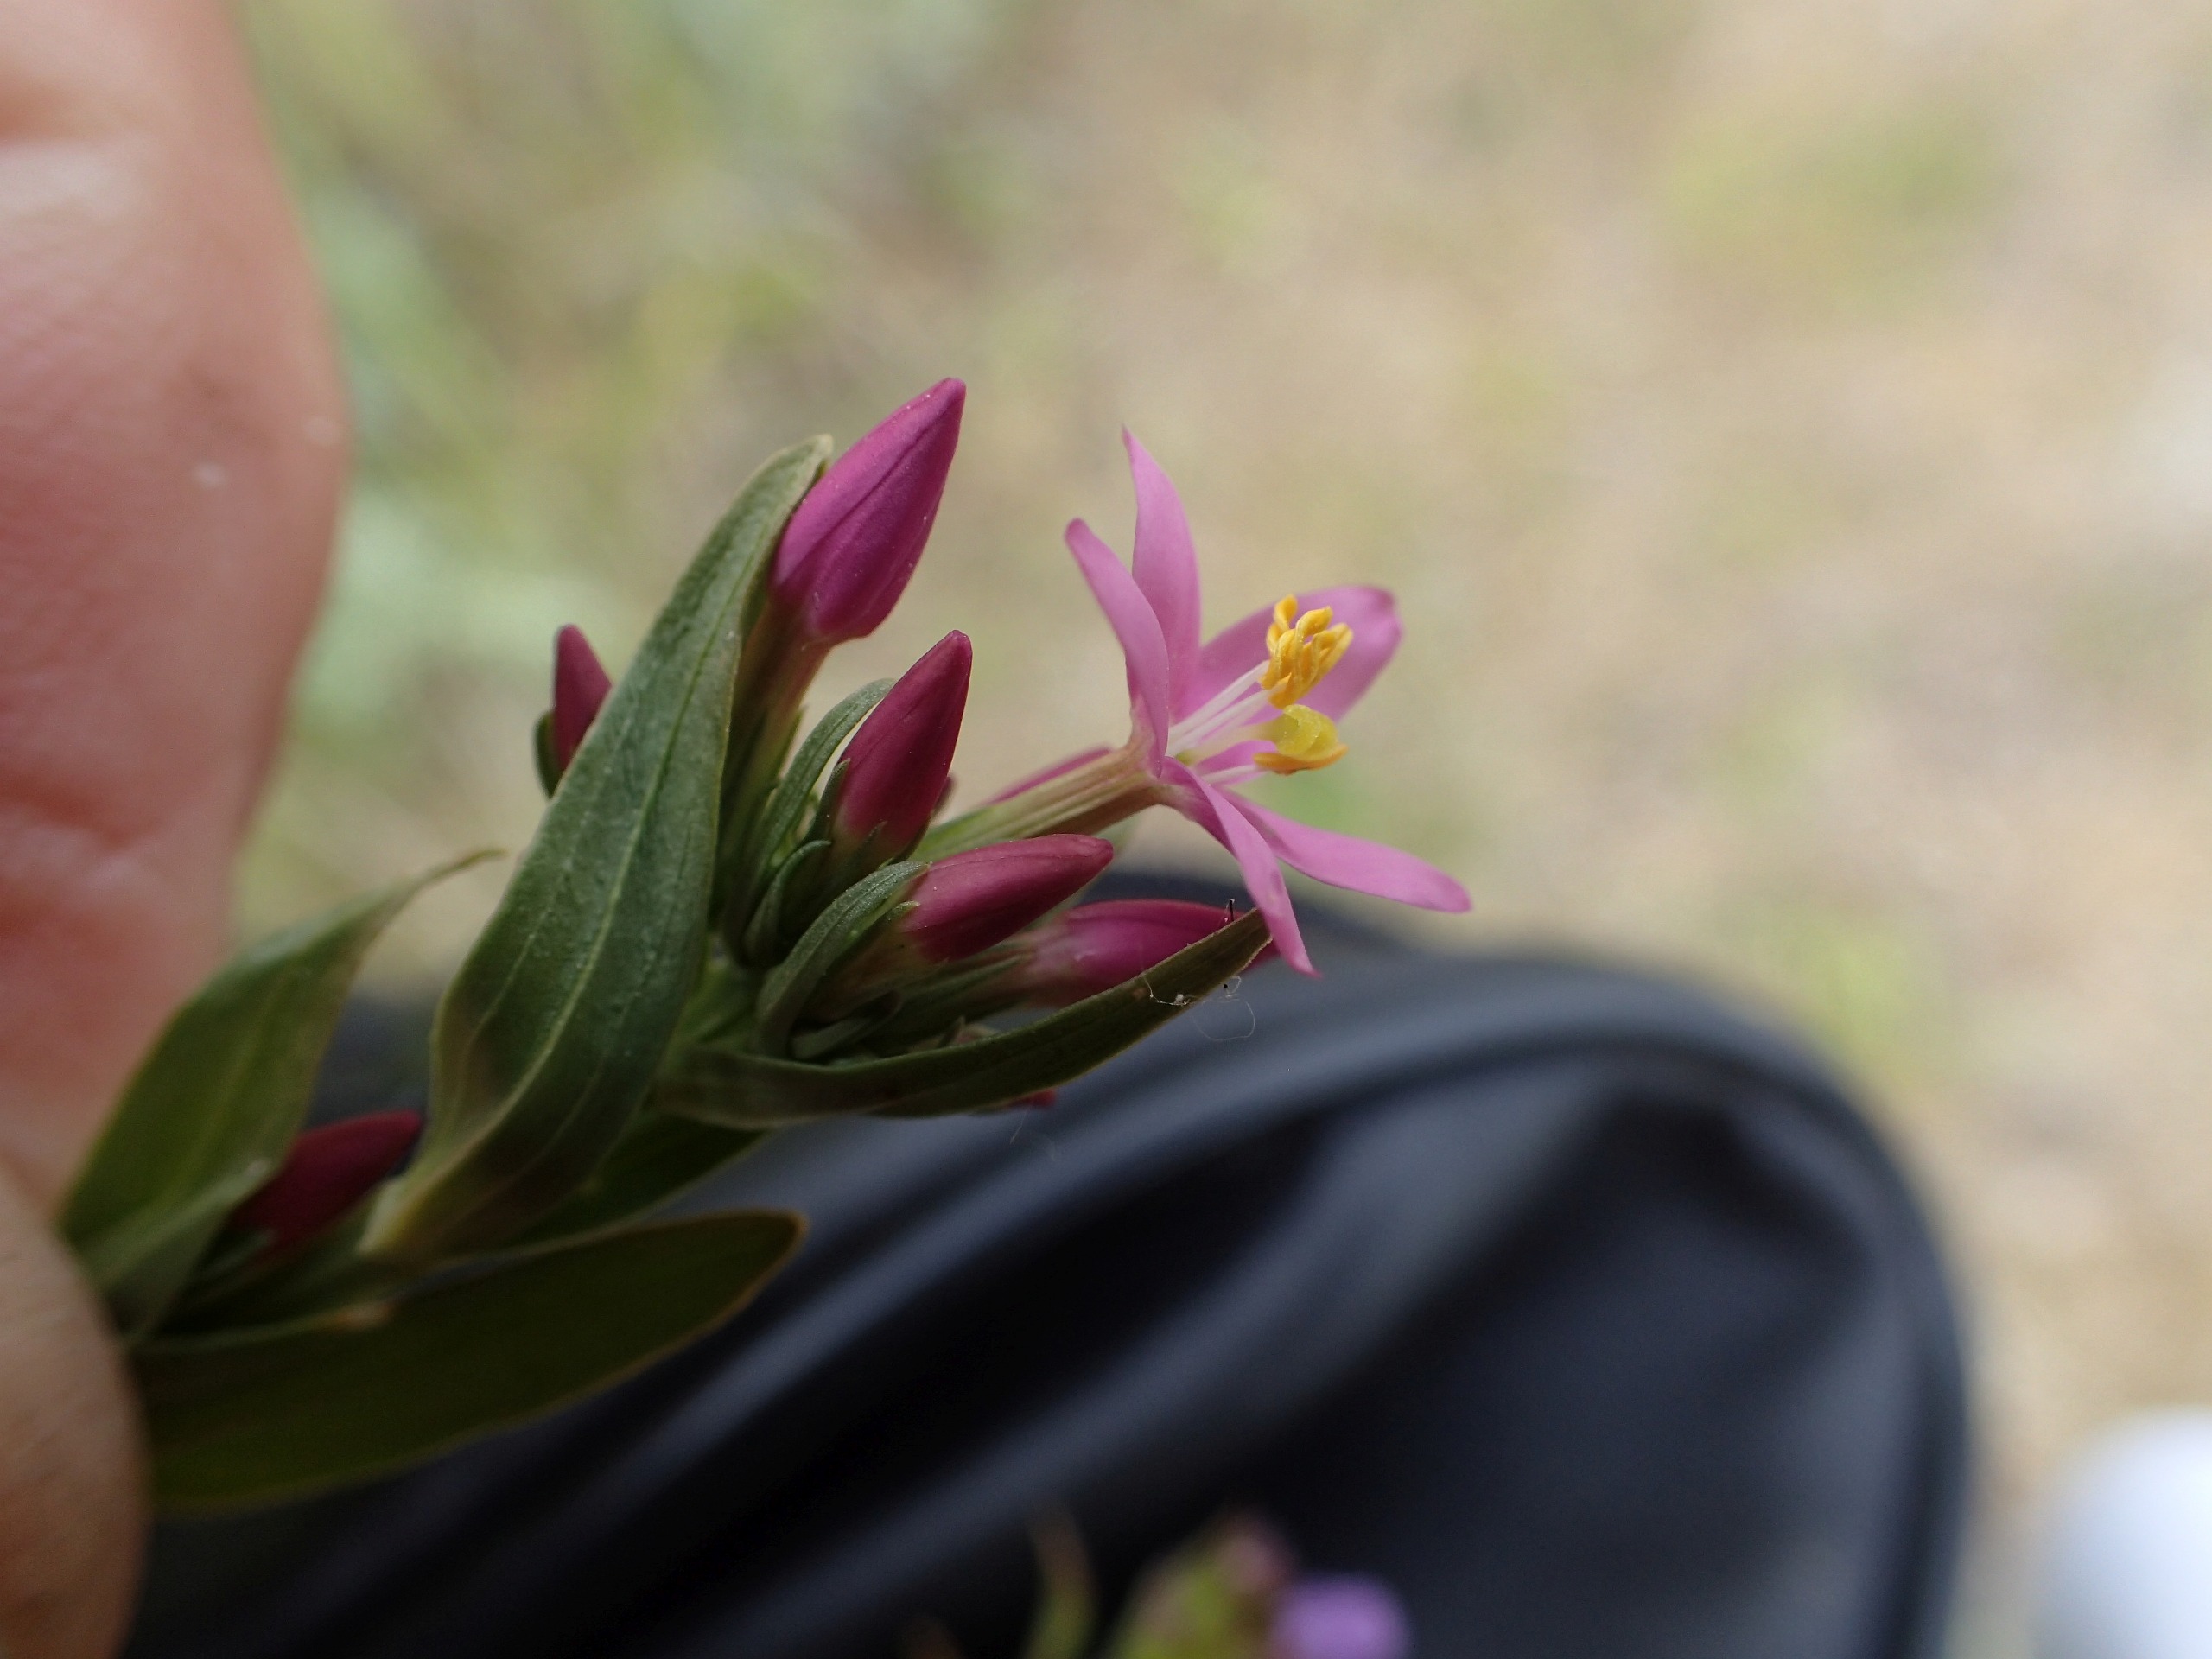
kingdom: Plantae
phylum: Tracheophyta
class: Magnoliopsida
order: Gentianales
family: Gentianaceae
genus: Centaurium
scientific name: Centaurium erythraea
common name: Mark-tusindgylden
